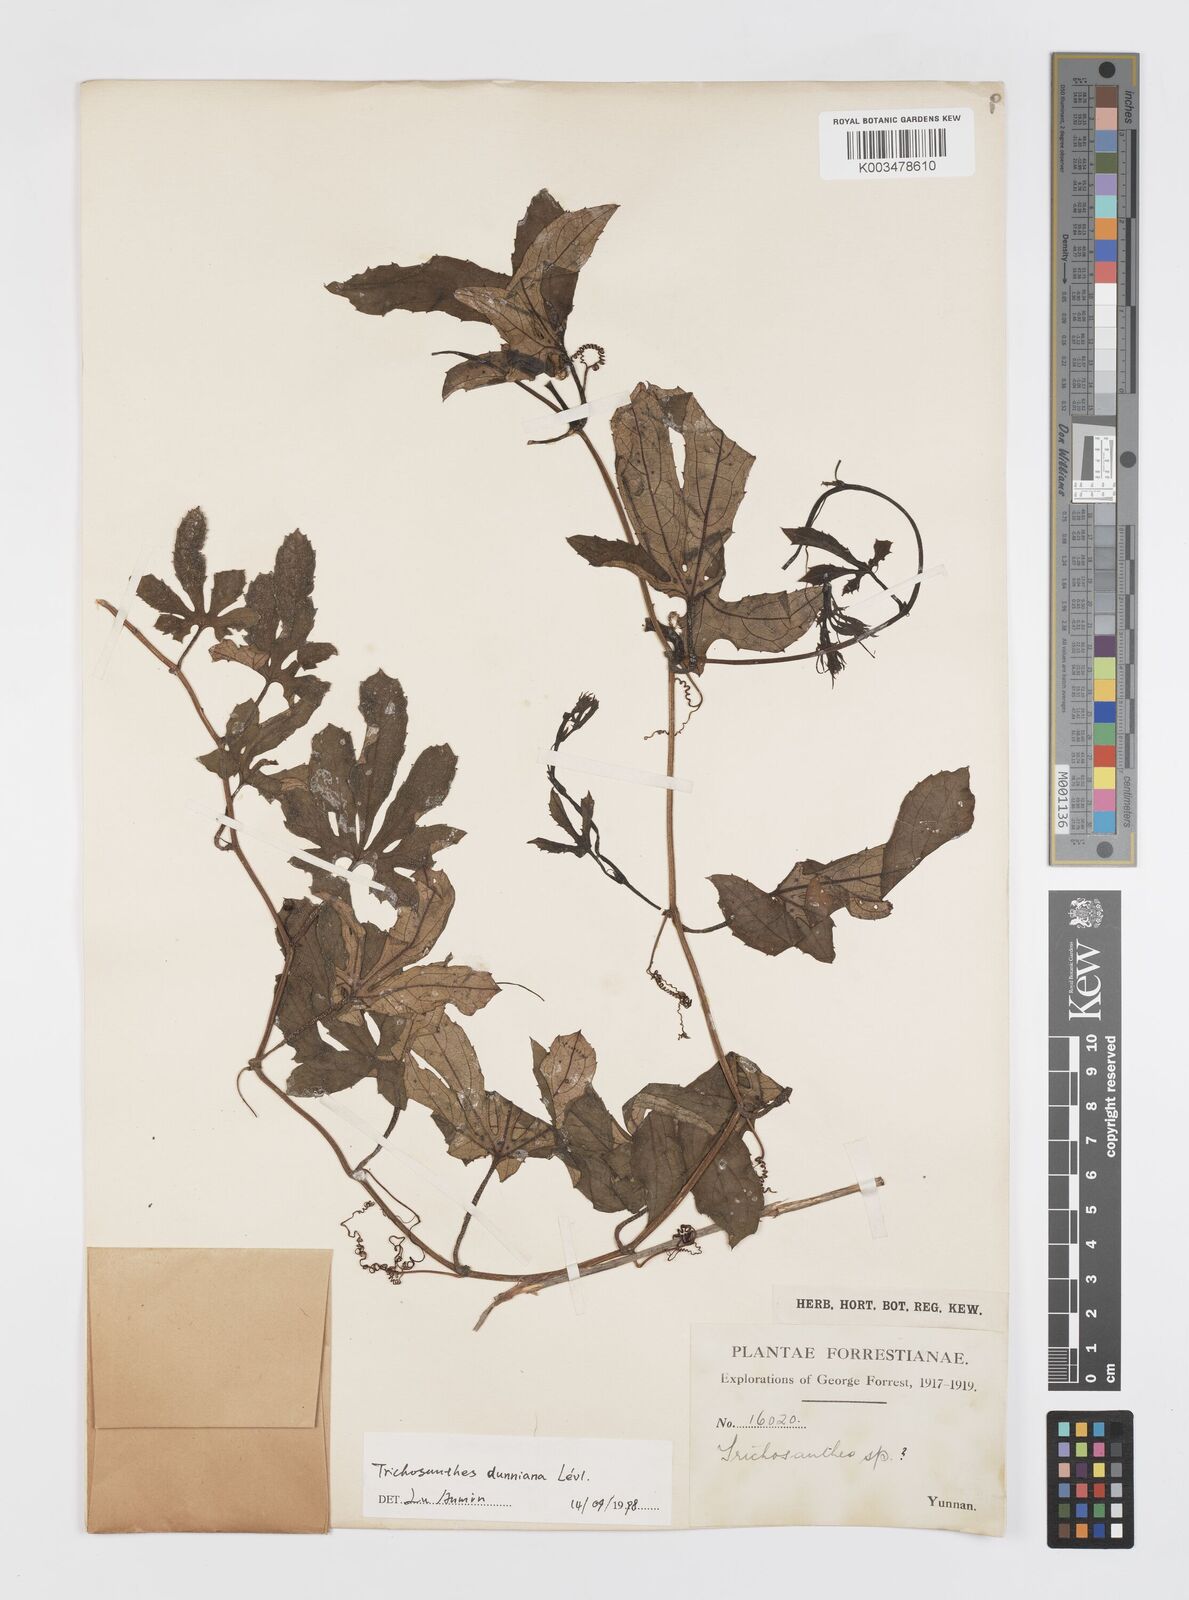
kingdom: Plantae
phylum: Tracheophyta
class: Magnoliopsida
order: Cucurbitales
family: Cucurbitaceae
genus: Trichosanthes
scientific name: Trichosanthes dunniana
